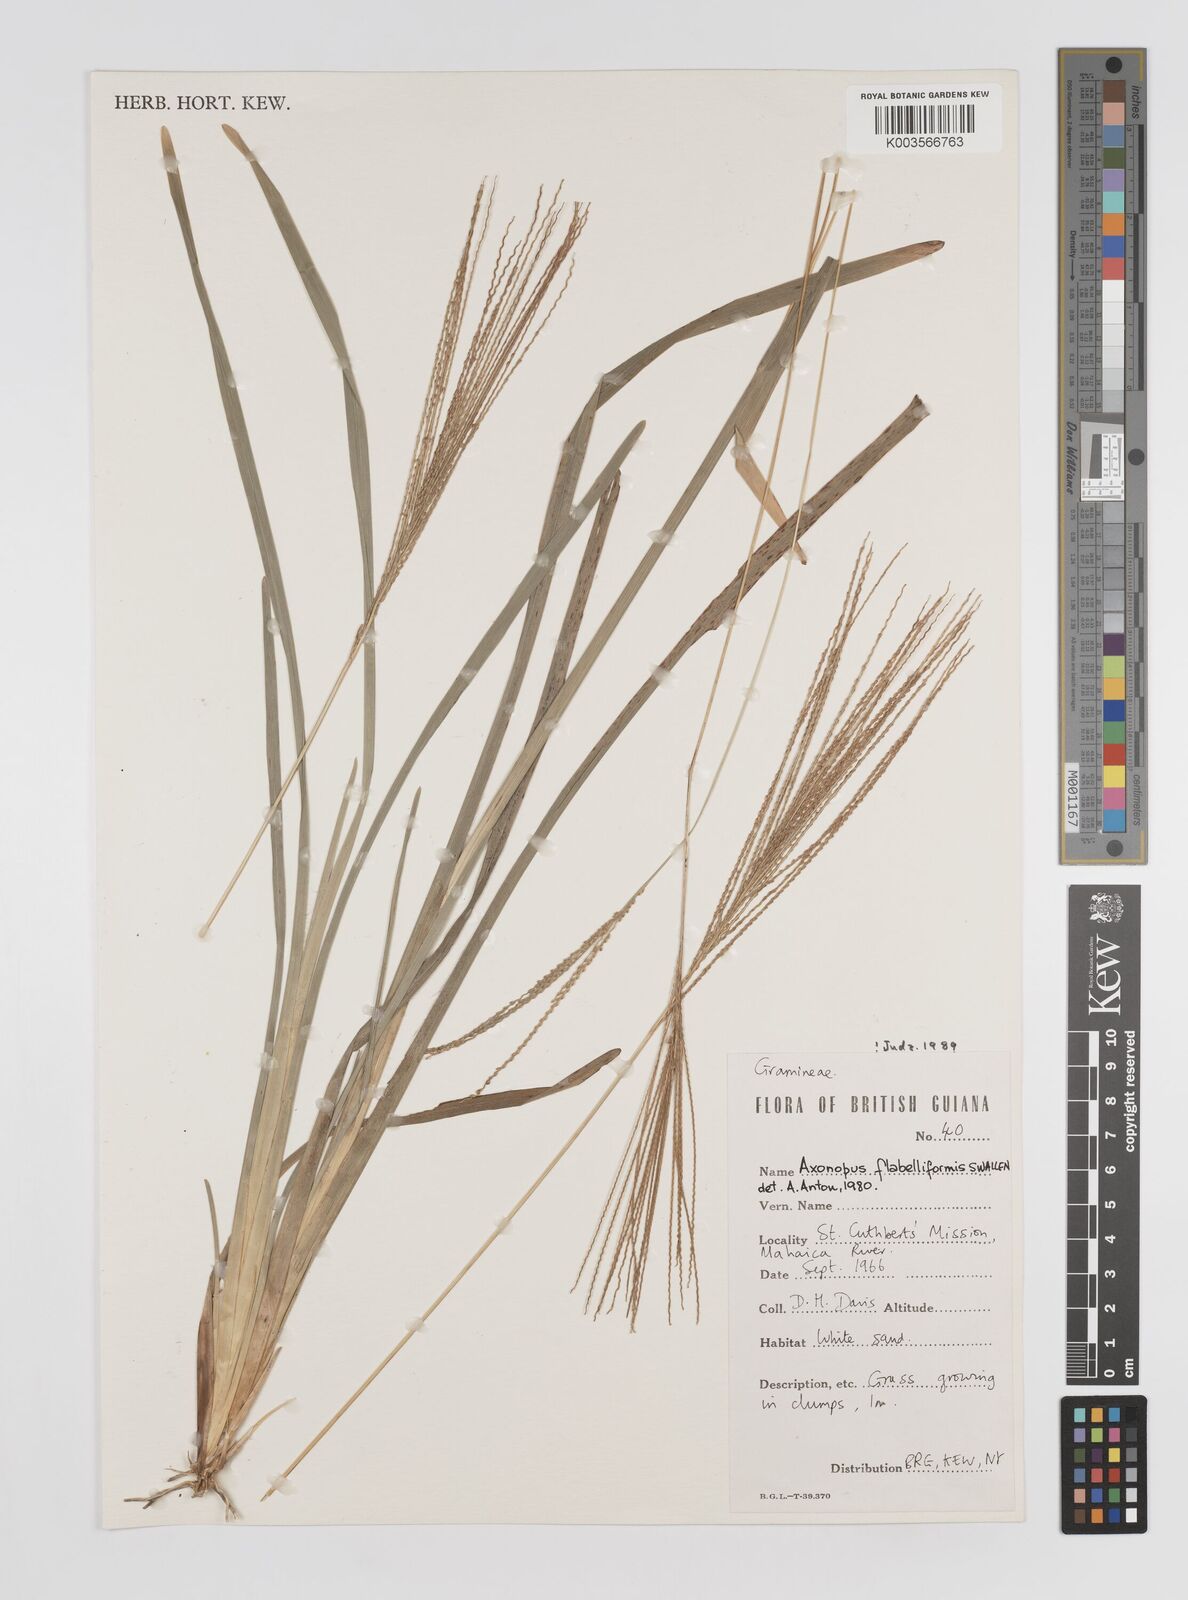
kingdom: Plantae
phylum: Tracheophyta
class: Liliopsida
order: Poales
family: Poaceae
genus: Axonopus
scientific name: Axonopus flabelliformis
